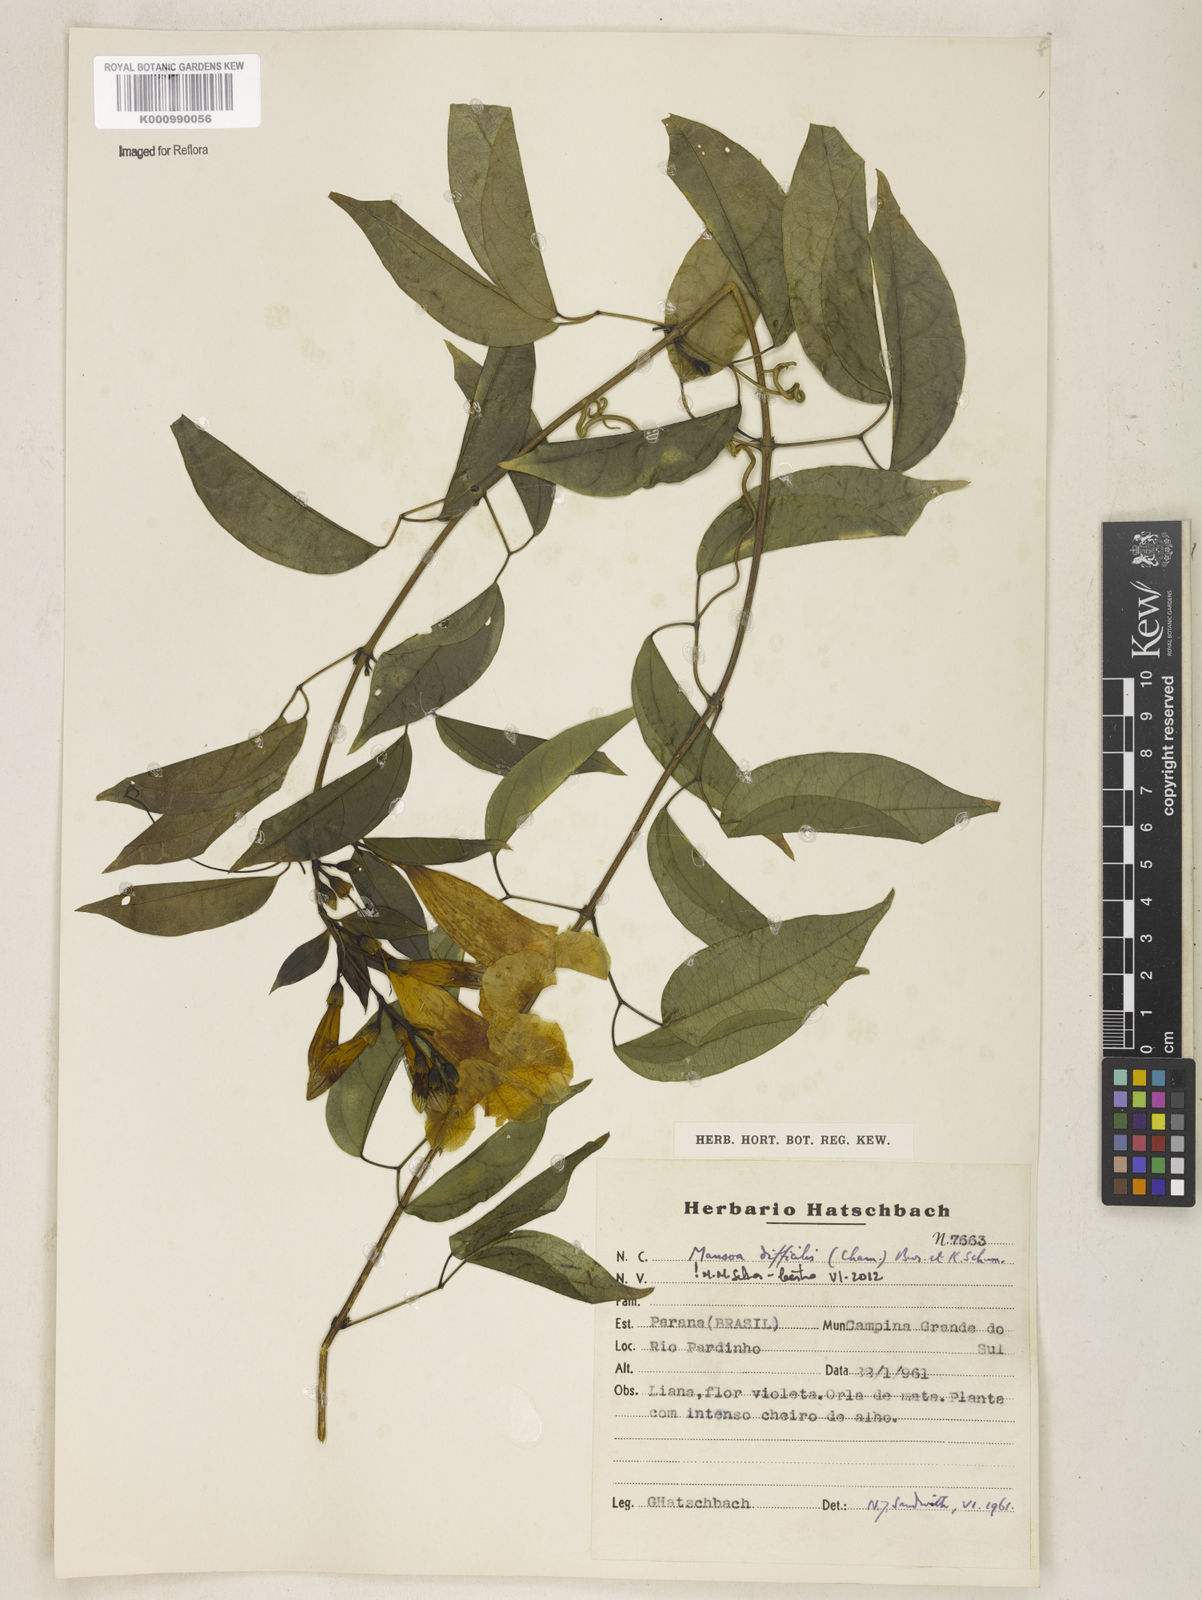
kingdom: Plantae
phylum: Tracheophyta
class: Magnoliopsida
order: Lamiales
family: Bignoniaceae
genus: Mansoa
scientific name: Mansoa difficilis
